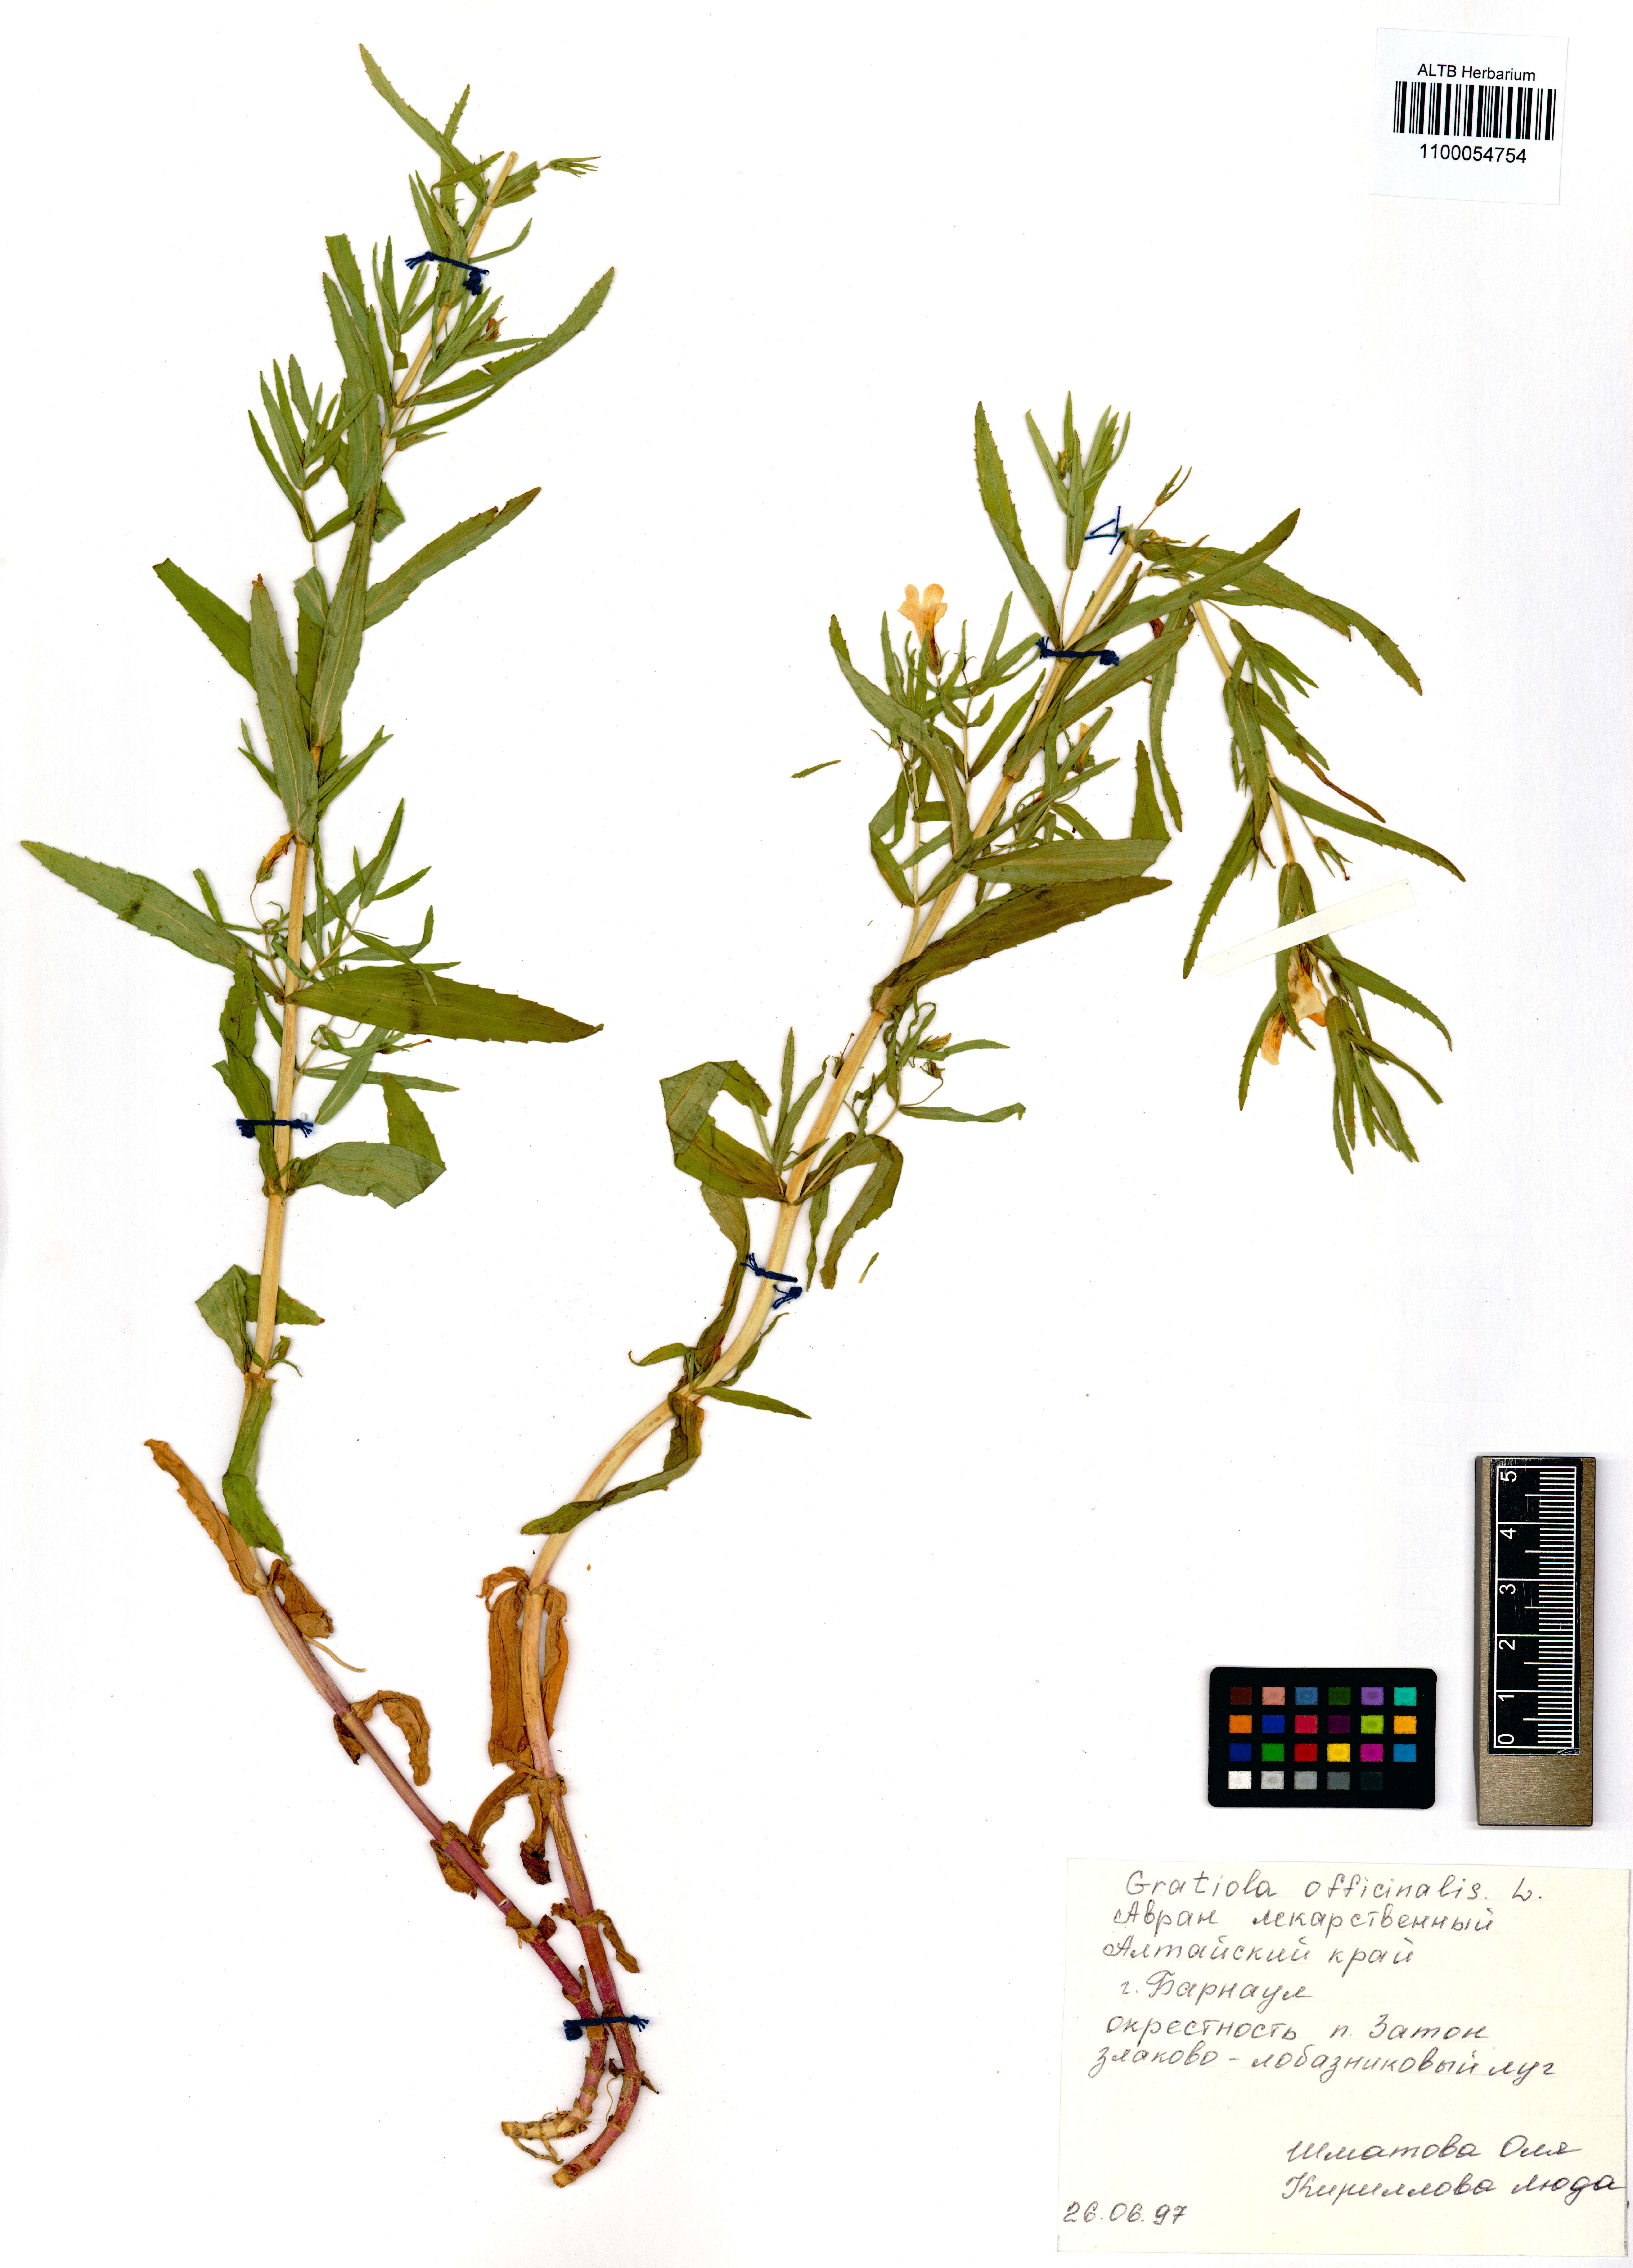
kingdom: Plantae
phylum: Tracheophyta
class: Magnoliopsida
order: Lamiales
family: Plantaginaceae
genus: Gratiola
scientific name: Gratiola officinalis
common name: Gratiola
